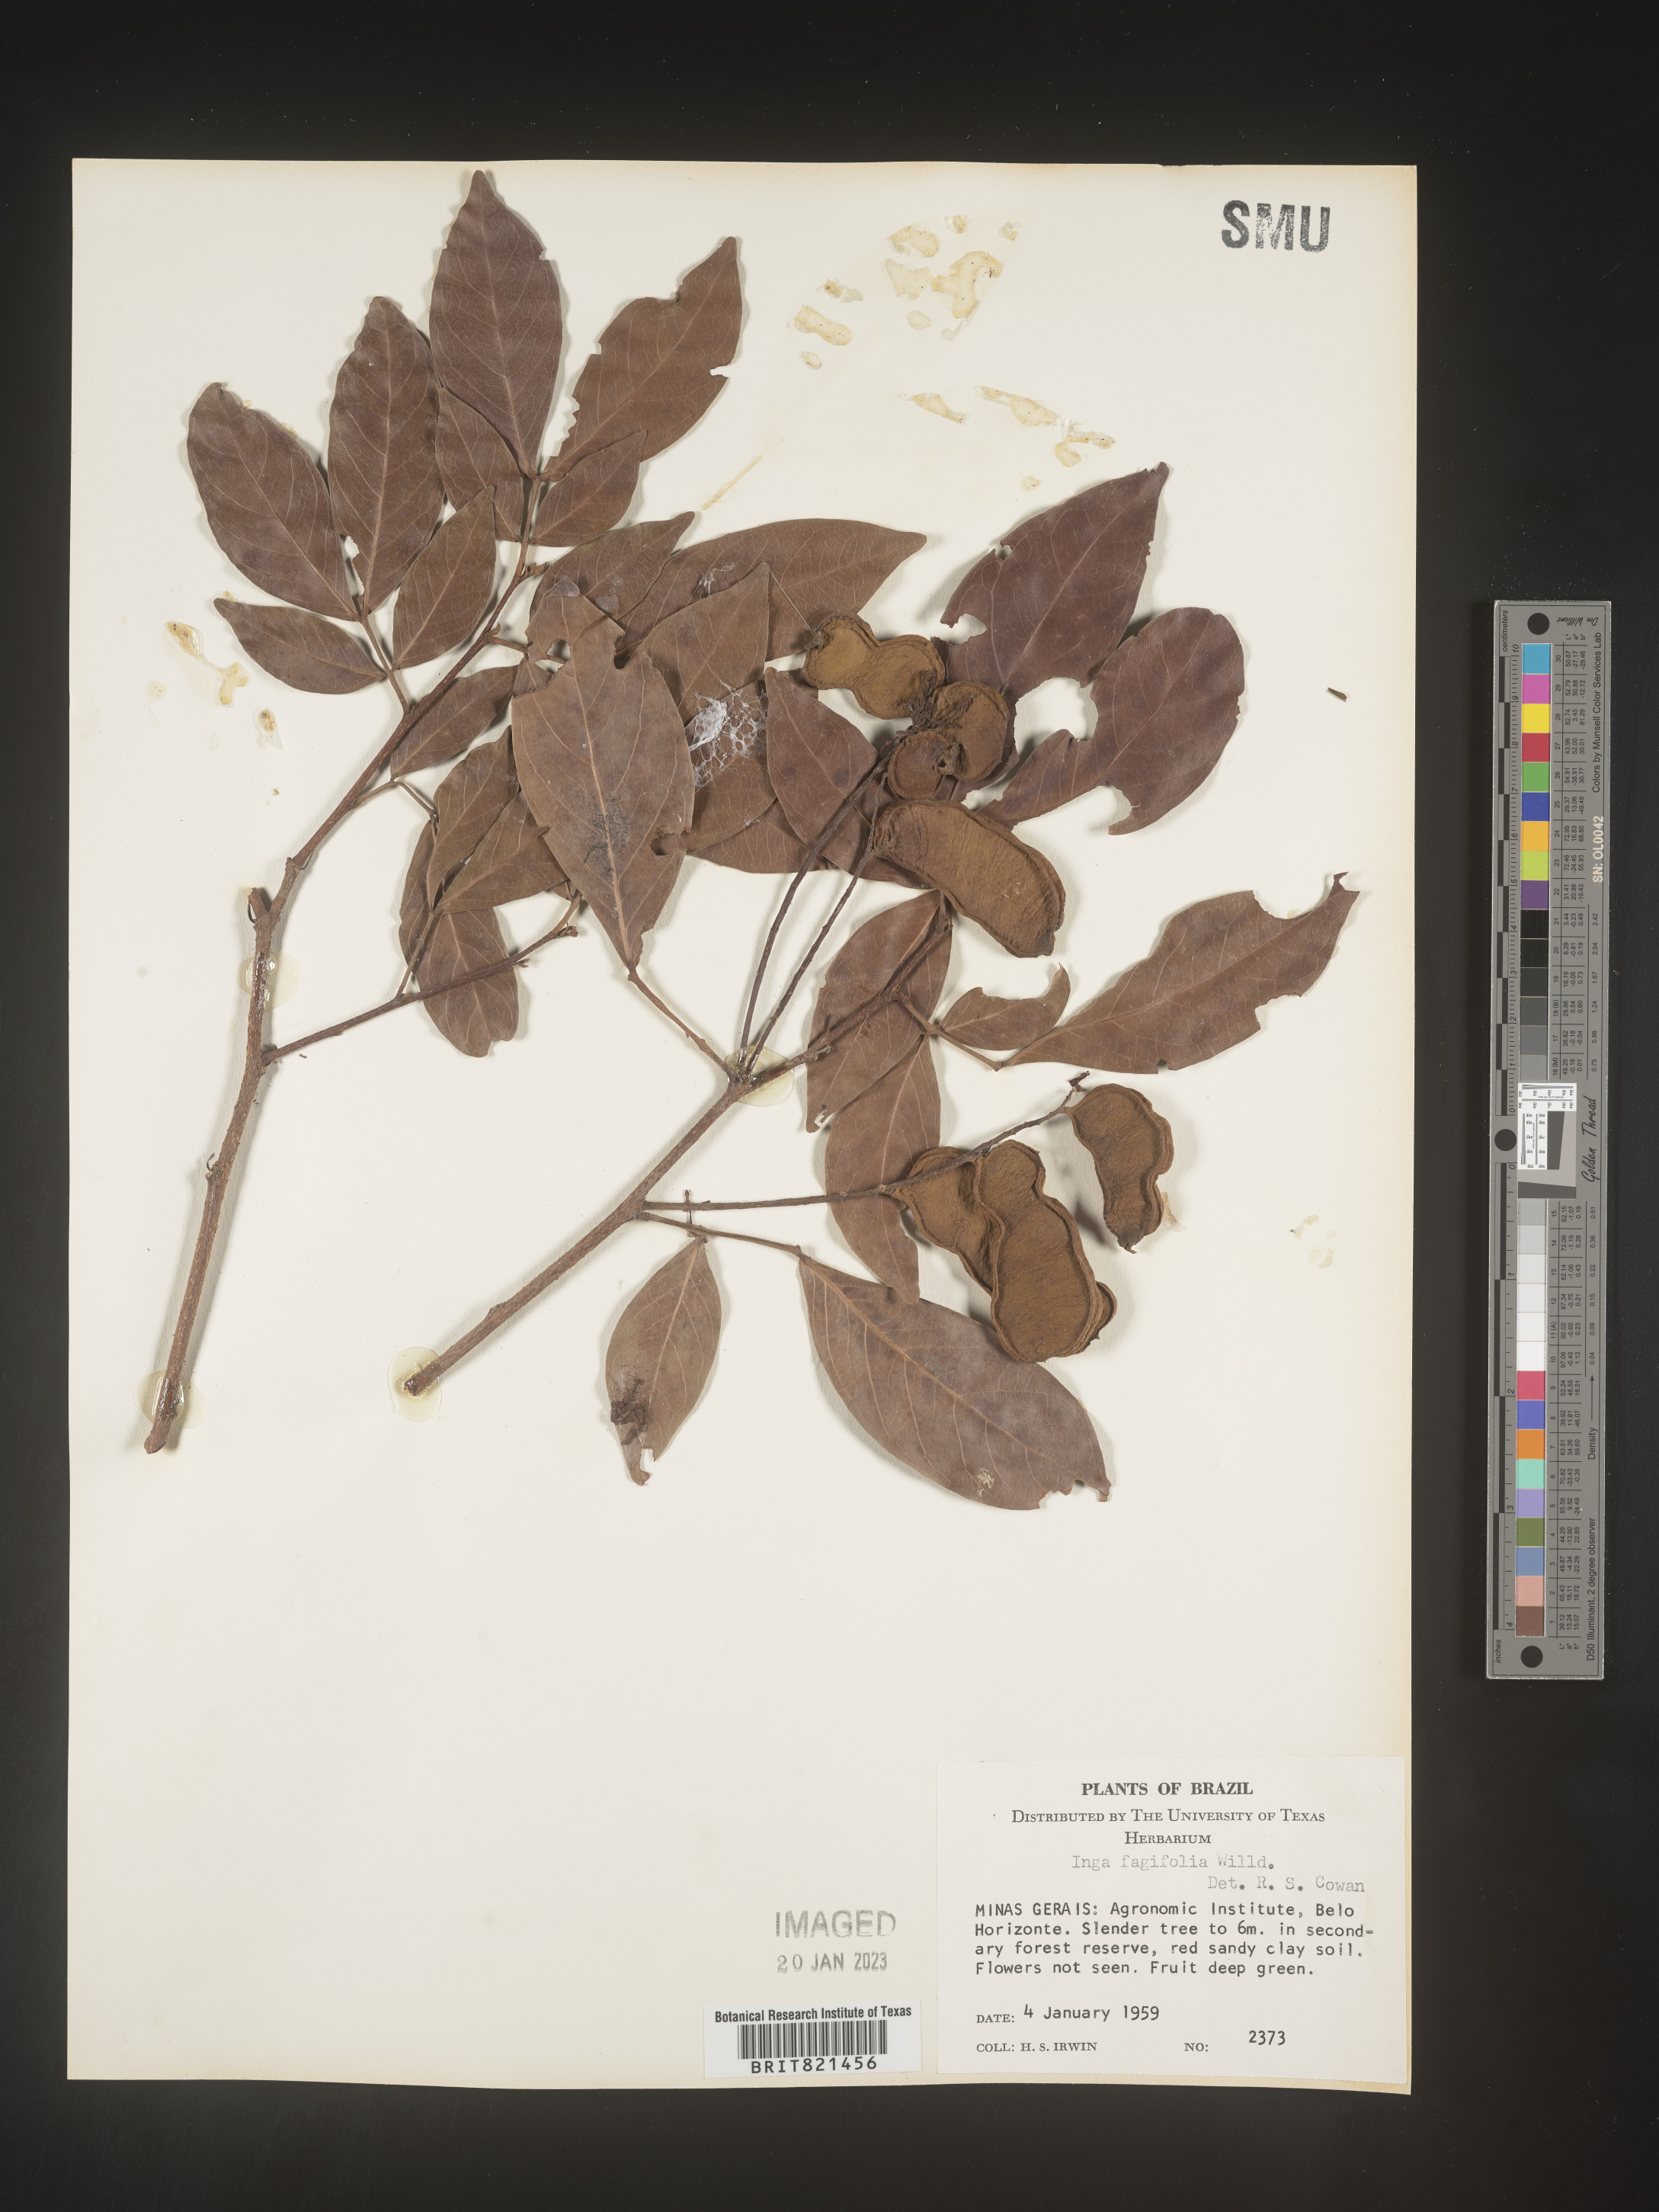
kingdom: Plantae
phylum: Tracheophyta
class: Magnoliopsida
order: Fabales
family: Fabaceae
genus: Inga
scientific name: Inga
